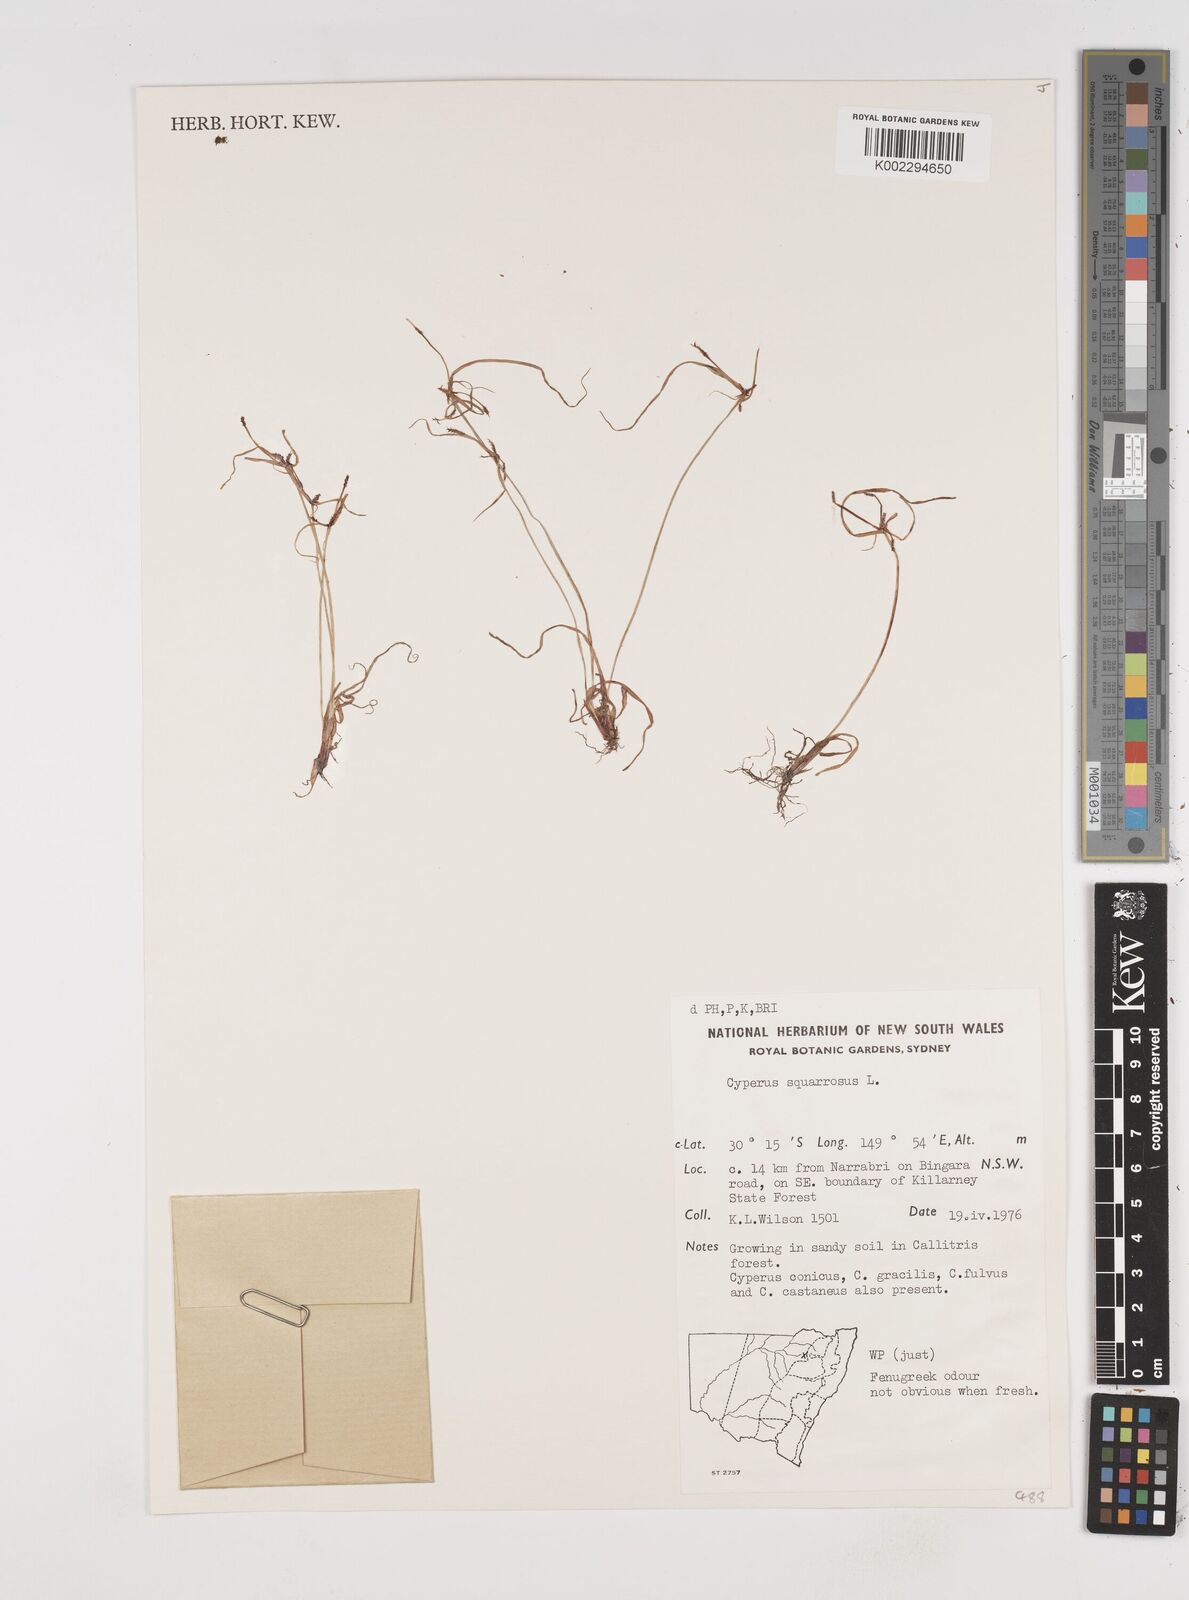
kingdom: Plantae
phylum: Tracheophyta
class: Liliopsida
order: Poales
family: Cyperaceae
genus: Cyperus
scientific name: Cyperus squarrosus
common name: Awned cyperus
